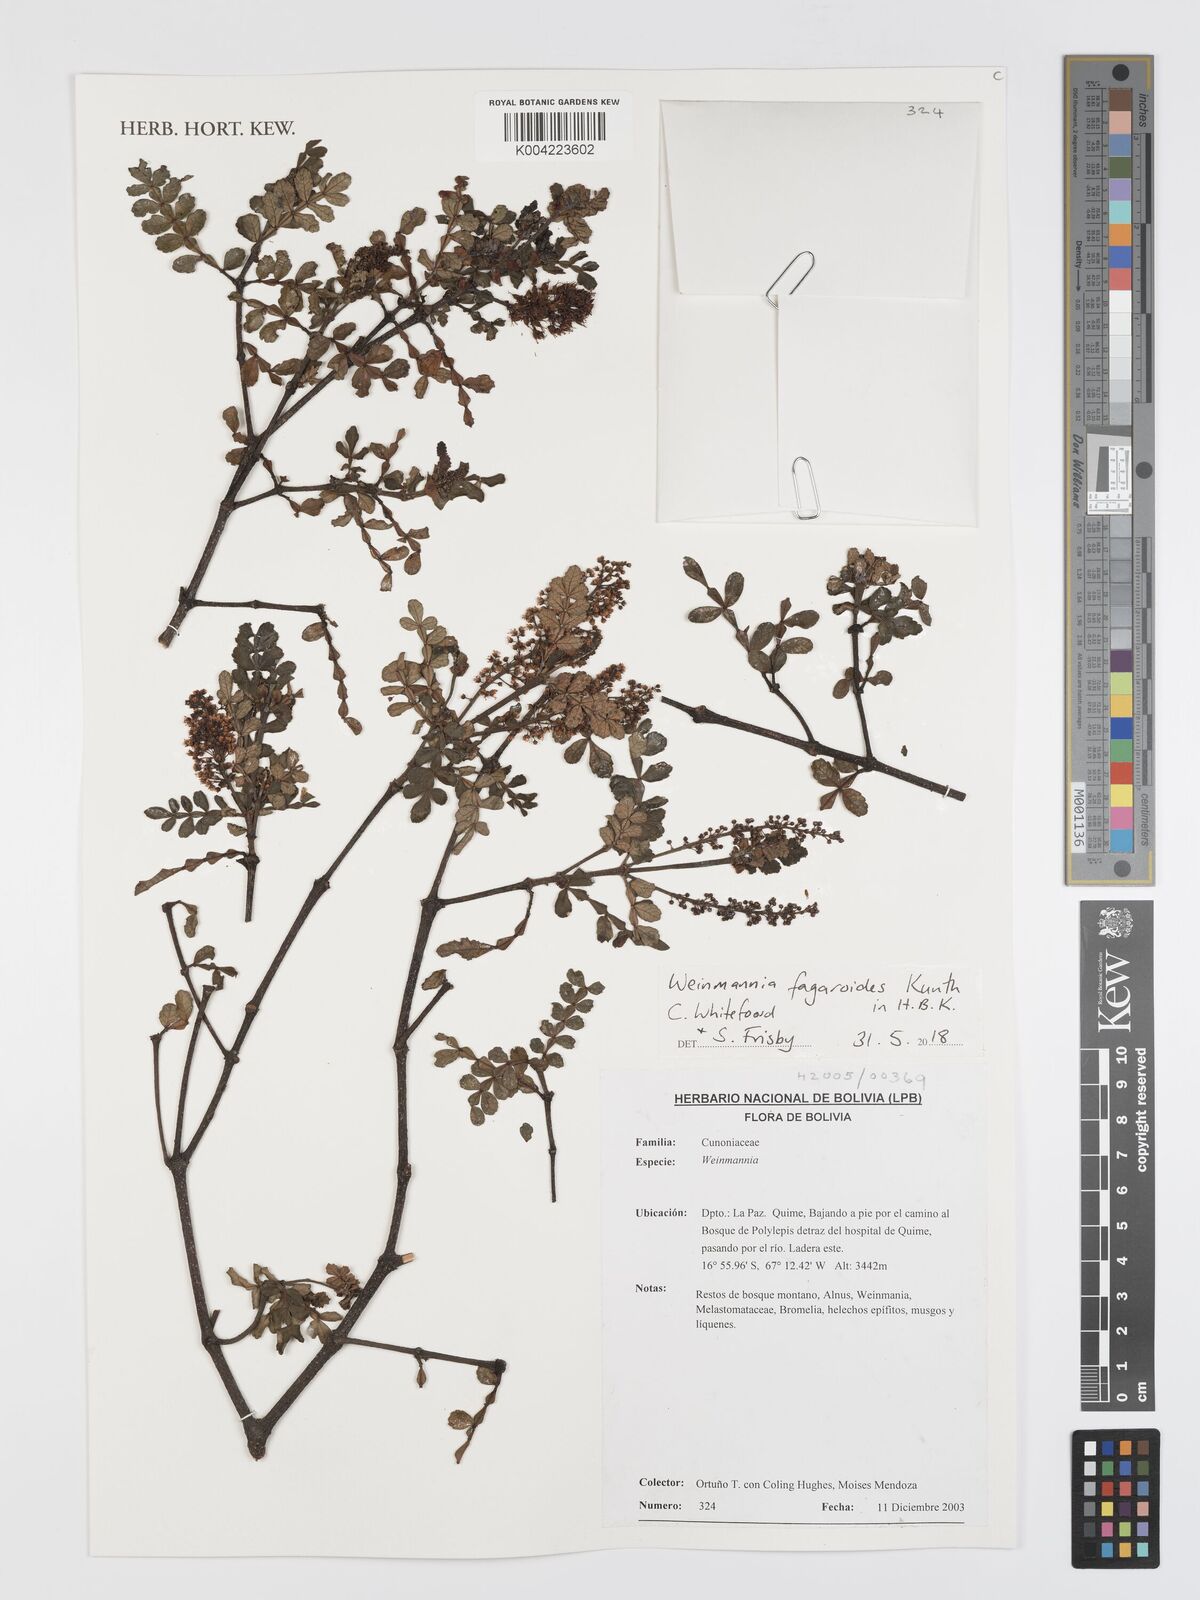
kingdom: Plantae
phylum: Tracheophyta
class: Magnoliopsida
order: Oxalidales
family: Cunoniaceae
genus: Weinmannia
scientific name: Weinmannia fagaroides
